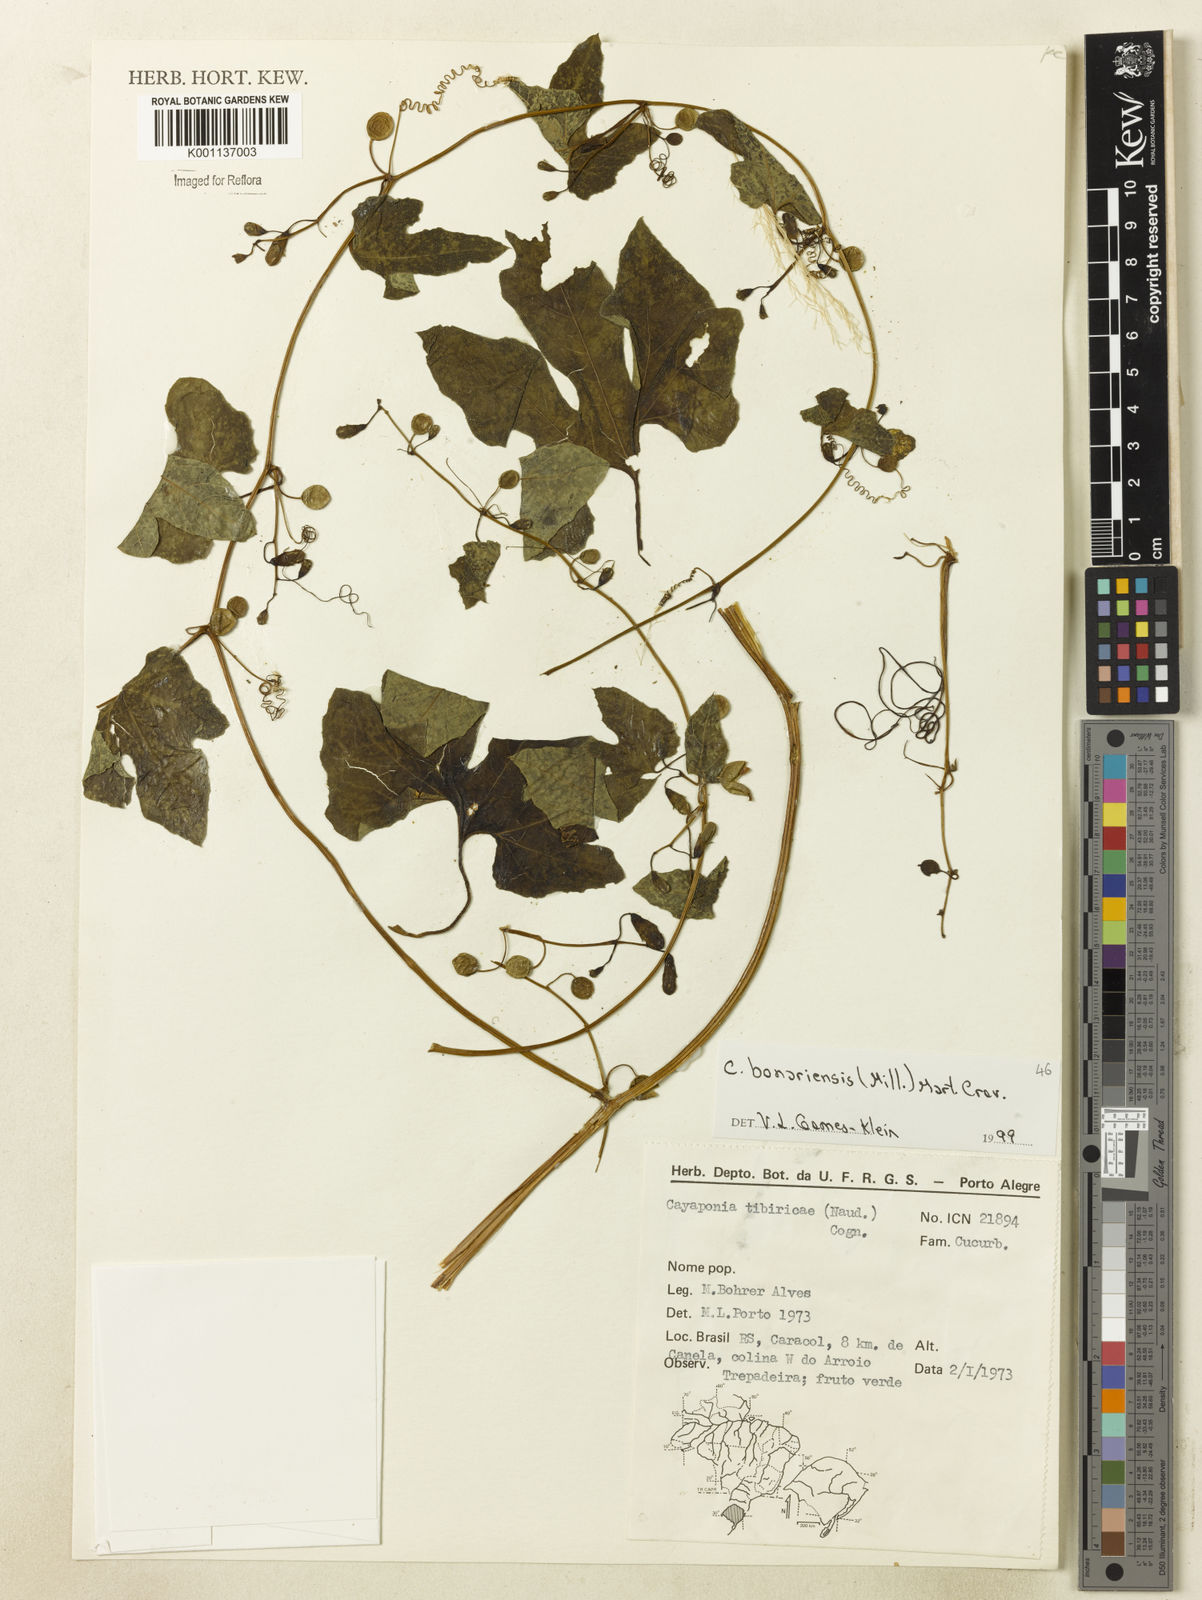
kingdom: Plantae
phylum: Tracheophyta
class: Magnoliopsida
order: Cucurbitales
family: Cucurbitaceae
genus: Cayaponia
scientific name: Cayaponia bonariensis
